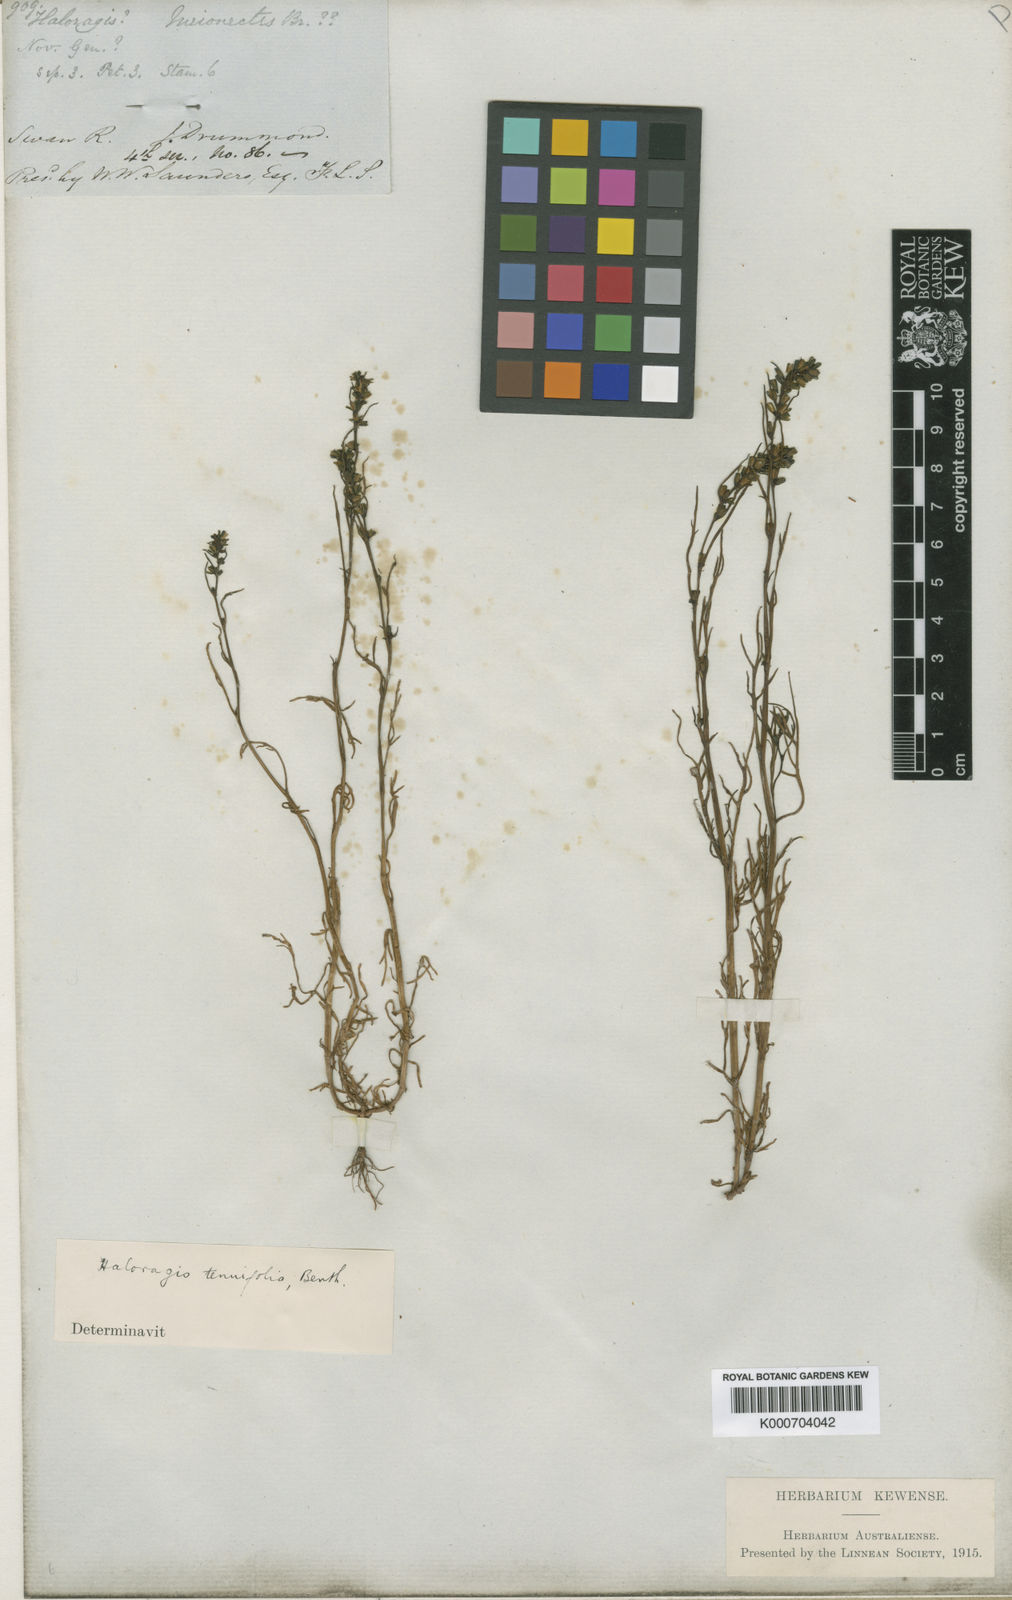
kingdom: Plantae
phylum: Tracheophyta
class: Magnoliopsida
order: Saxifragales
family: Haloragaceae
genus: Haloragis
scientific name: Haloragis tenuifolia
